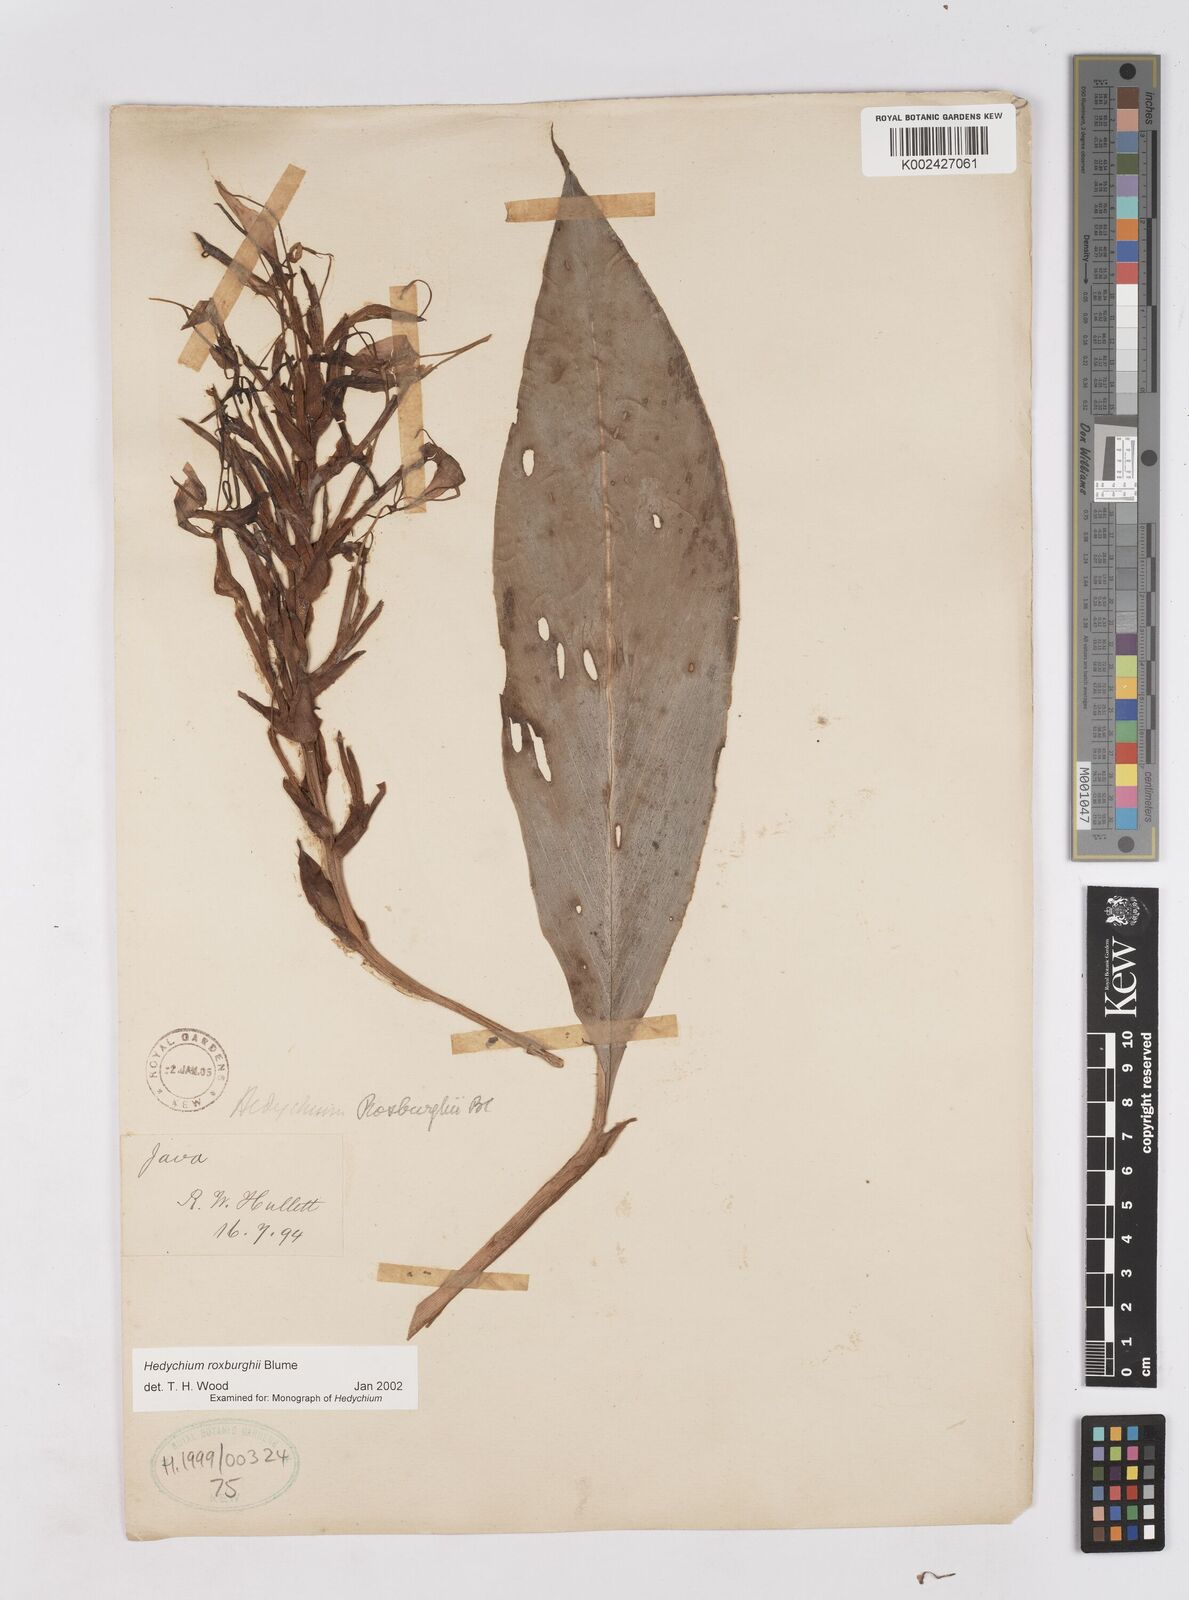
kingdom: Plantae
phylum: Tracheophyta
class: Liliopsida
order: Zingiberales
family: Zingiberaceae
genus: Hedychium
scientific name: Hedychium roxburghii
